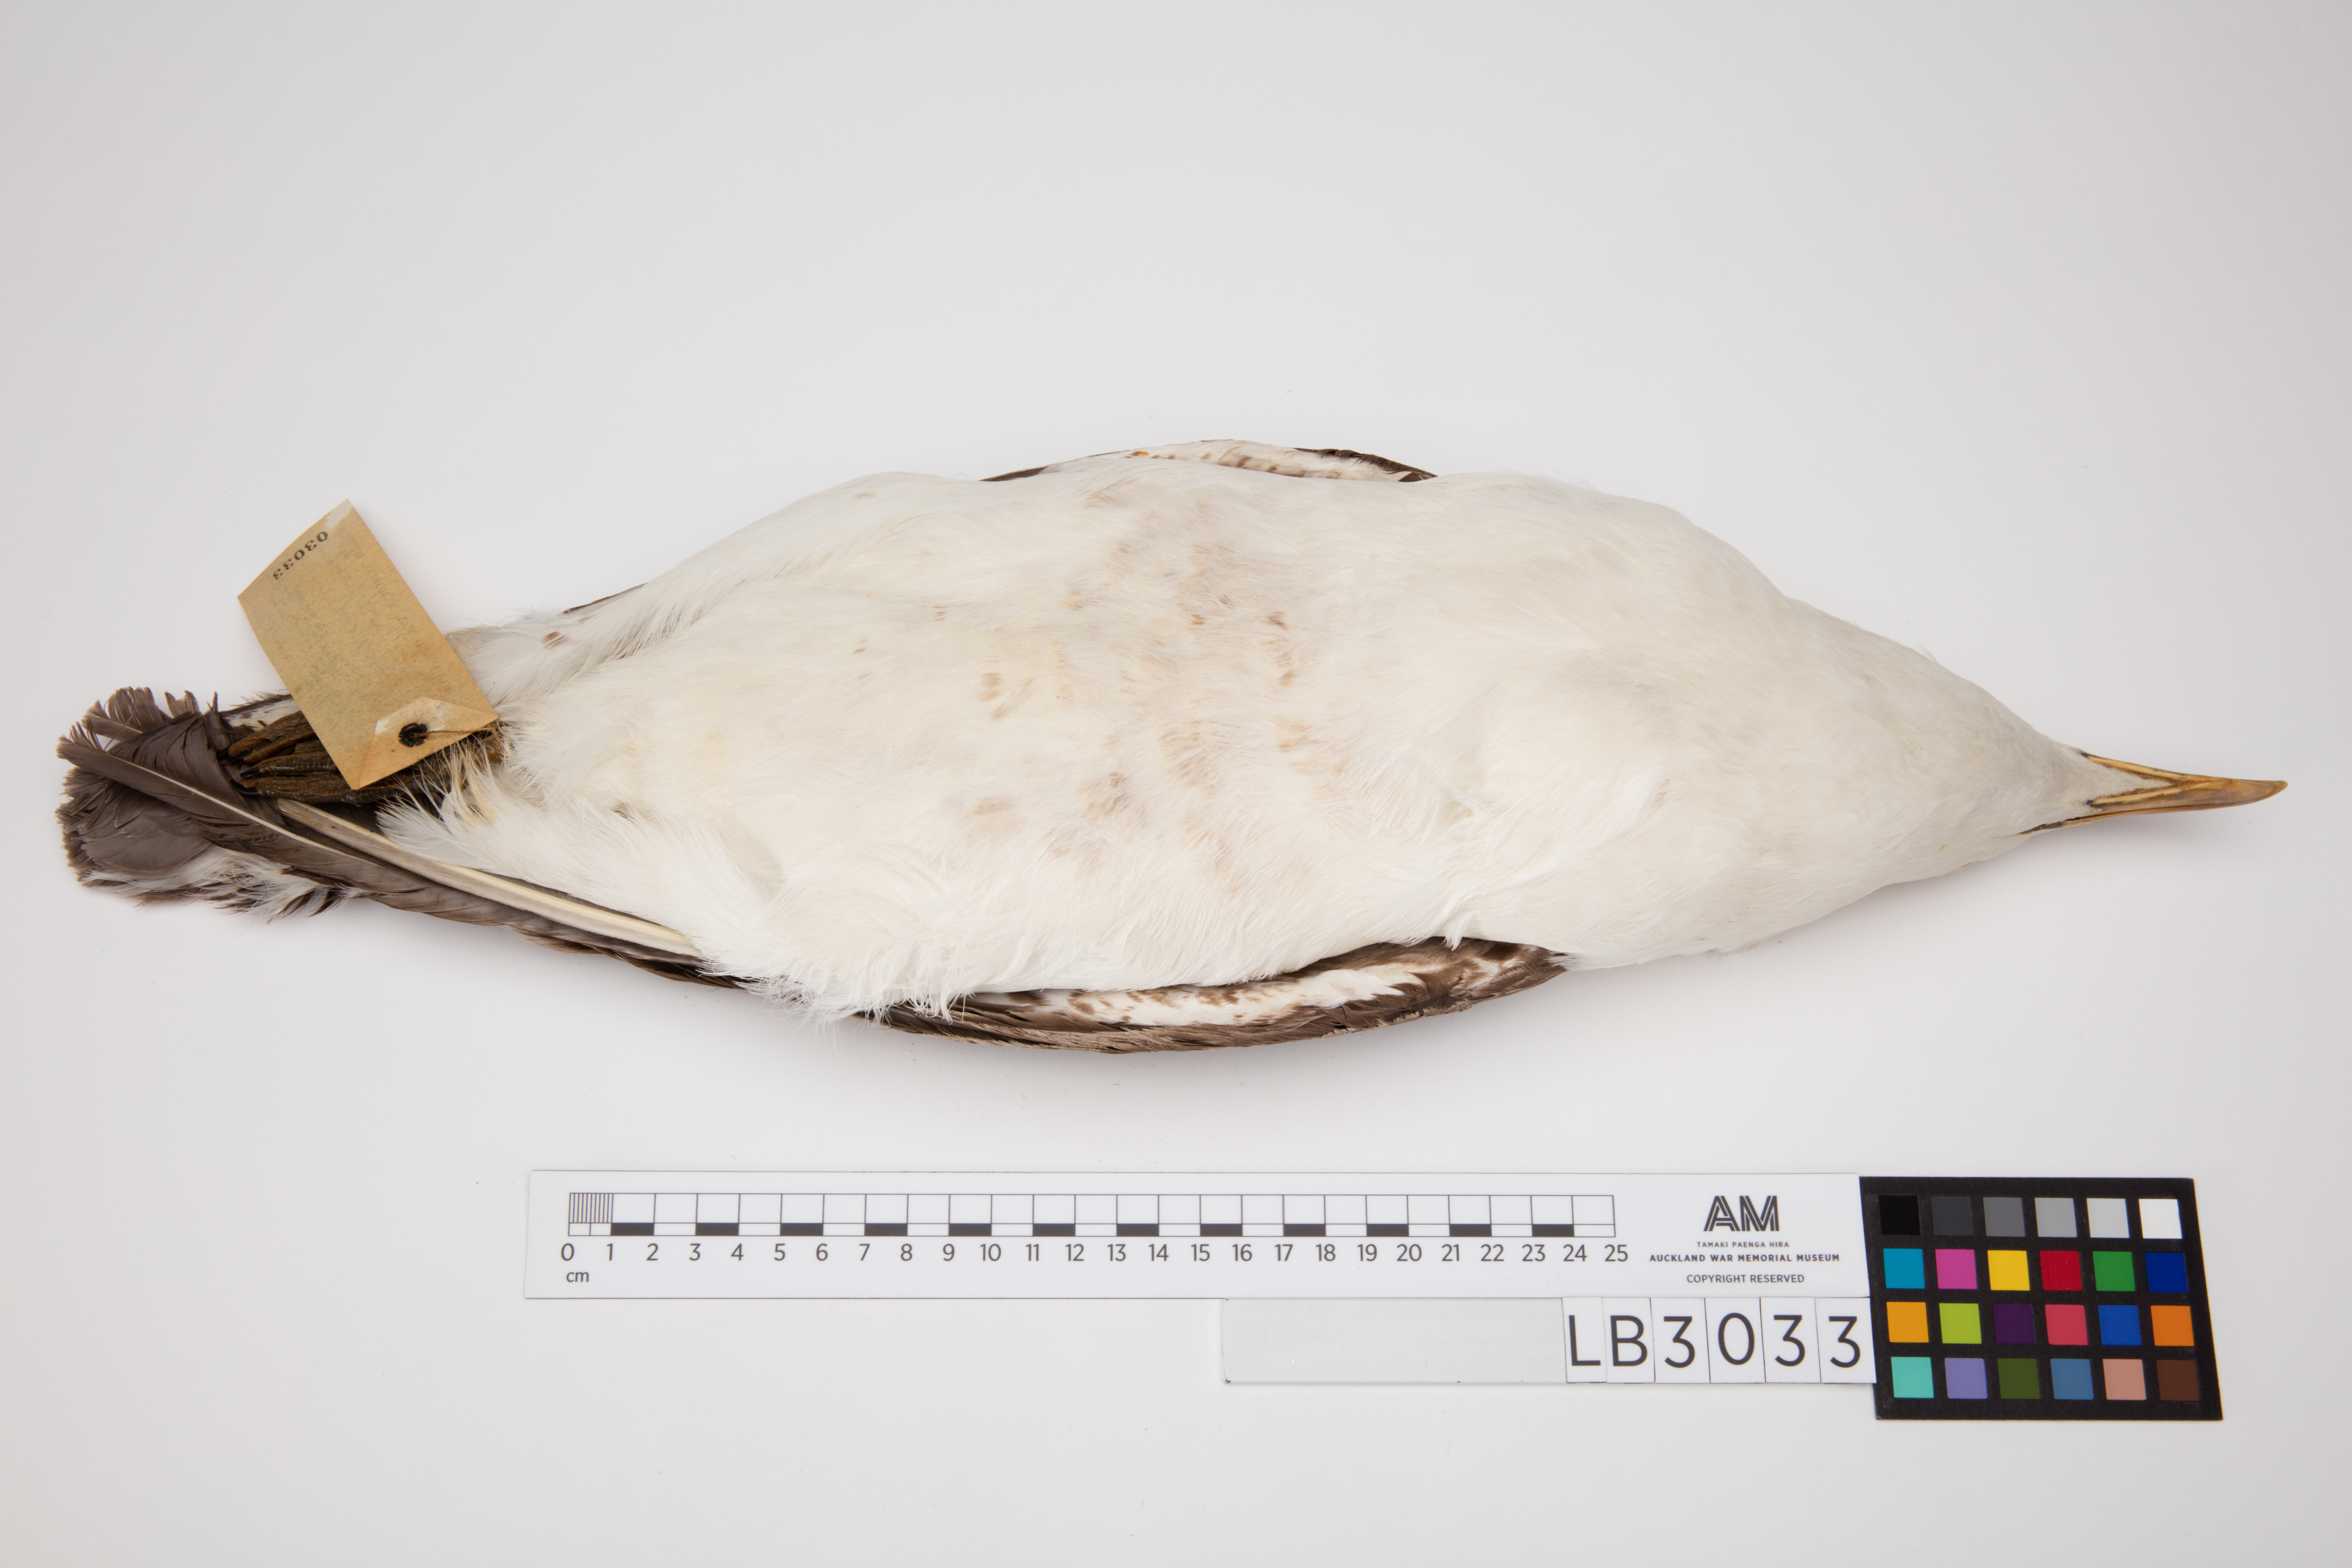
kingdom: Animalia
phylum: Chordata
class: Aves
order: Charadriiformes
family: Laridae
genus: Larus
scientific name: Larus dominicanus
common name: Kelp gull
